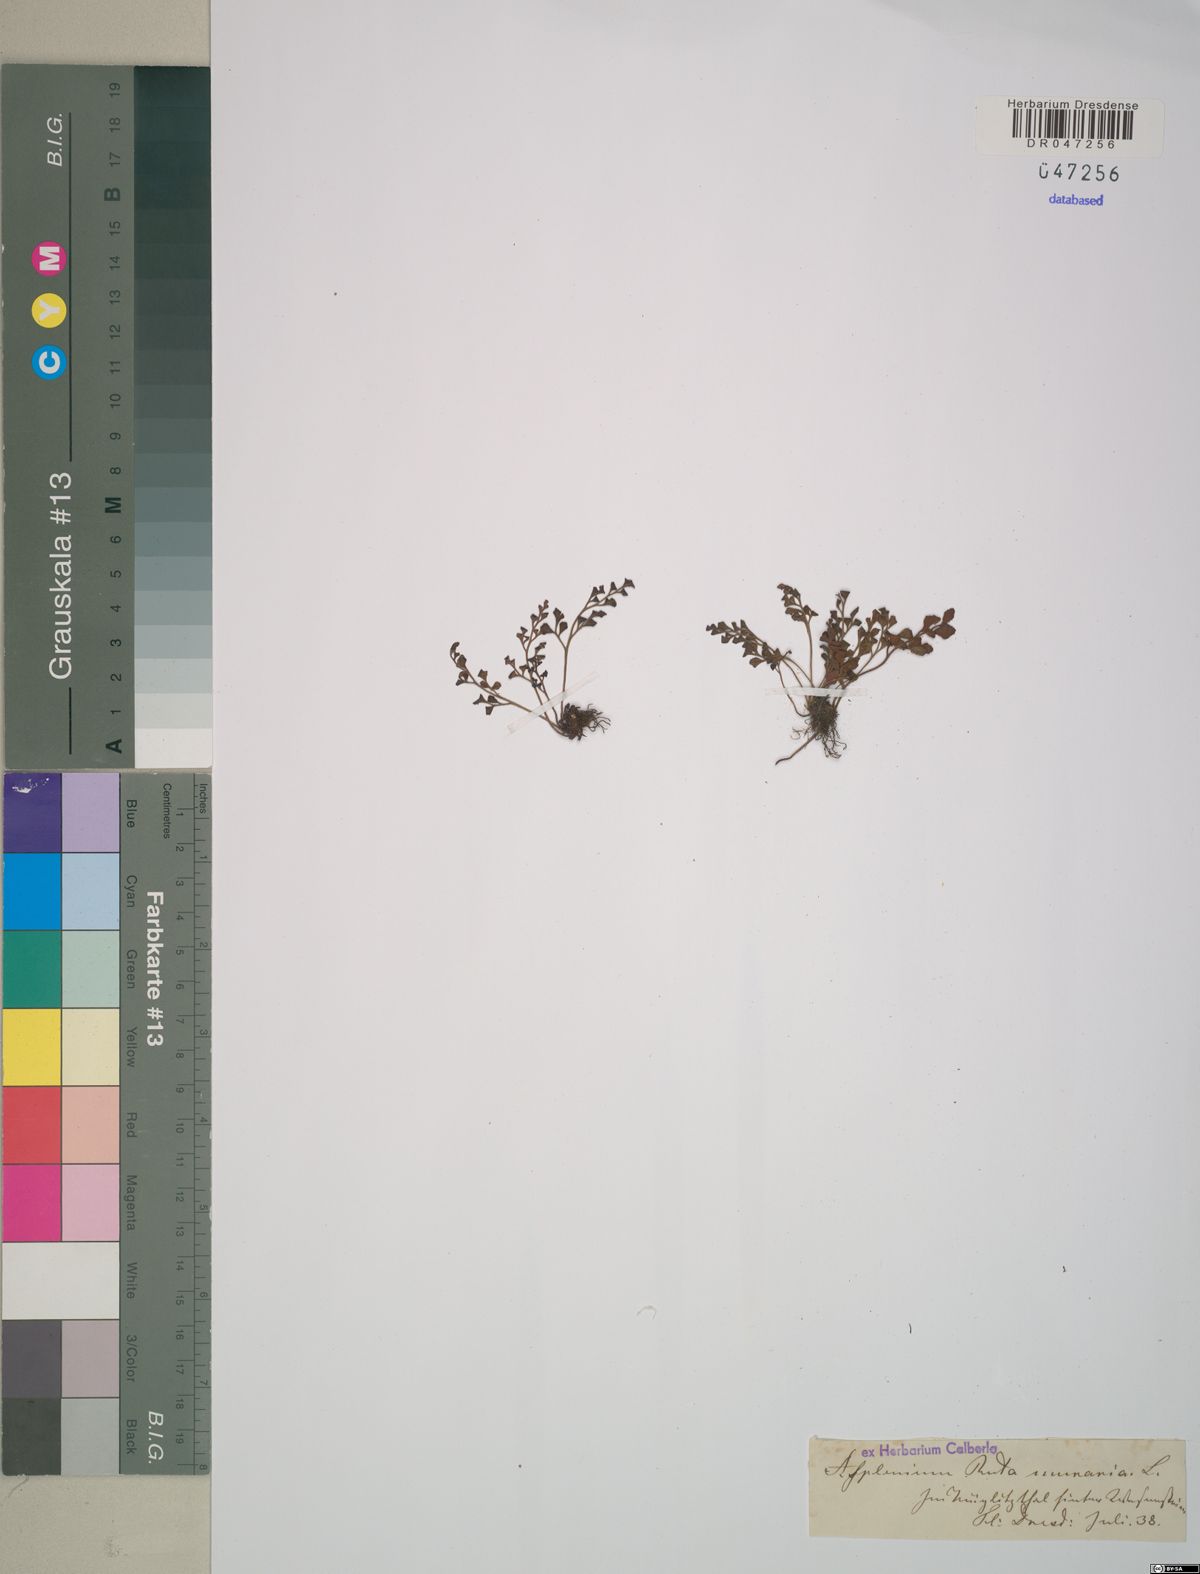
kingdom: Plantae
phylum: Tracheophyta
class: Polypodiopsida
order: Polypodiales
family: Aspleniaceae
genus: Asplenium
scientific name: Asplenium ruta-muraria
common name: Wall-rue
